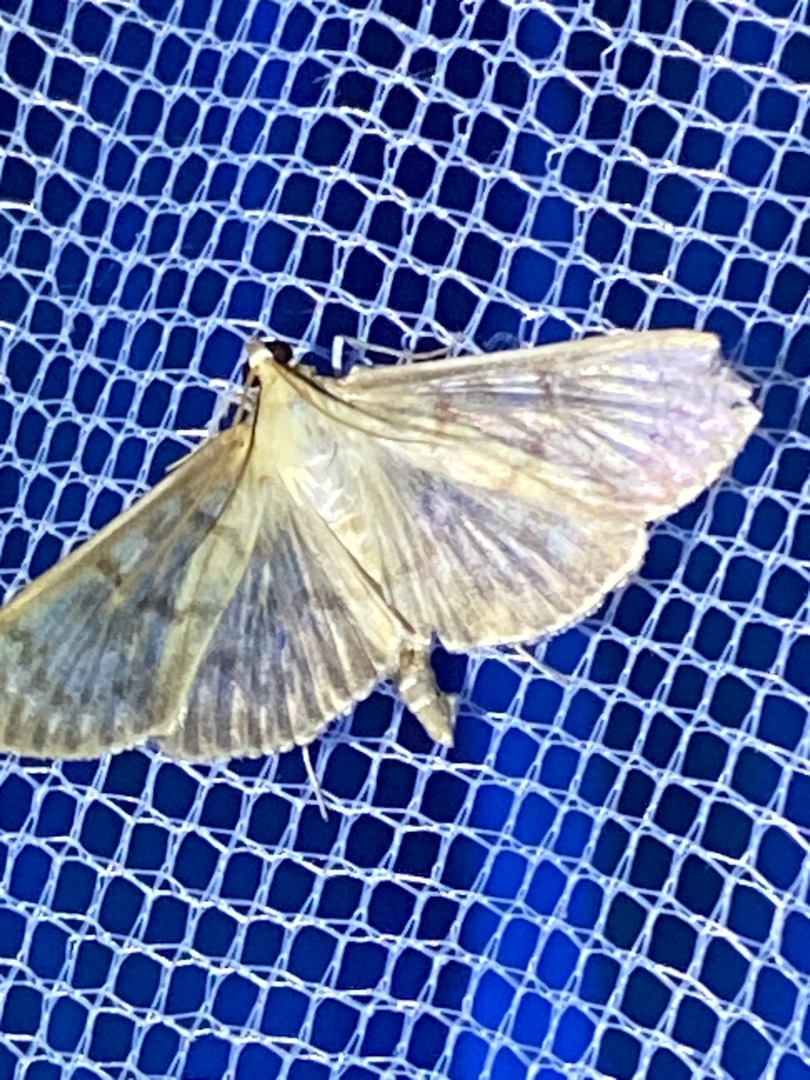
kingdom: Animalia
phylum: Arthropoda
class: Insecta
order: Lepidoptera
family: Crambidae
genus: Patania
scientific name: Patania ruralis
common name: Perlemorshalvmøl
